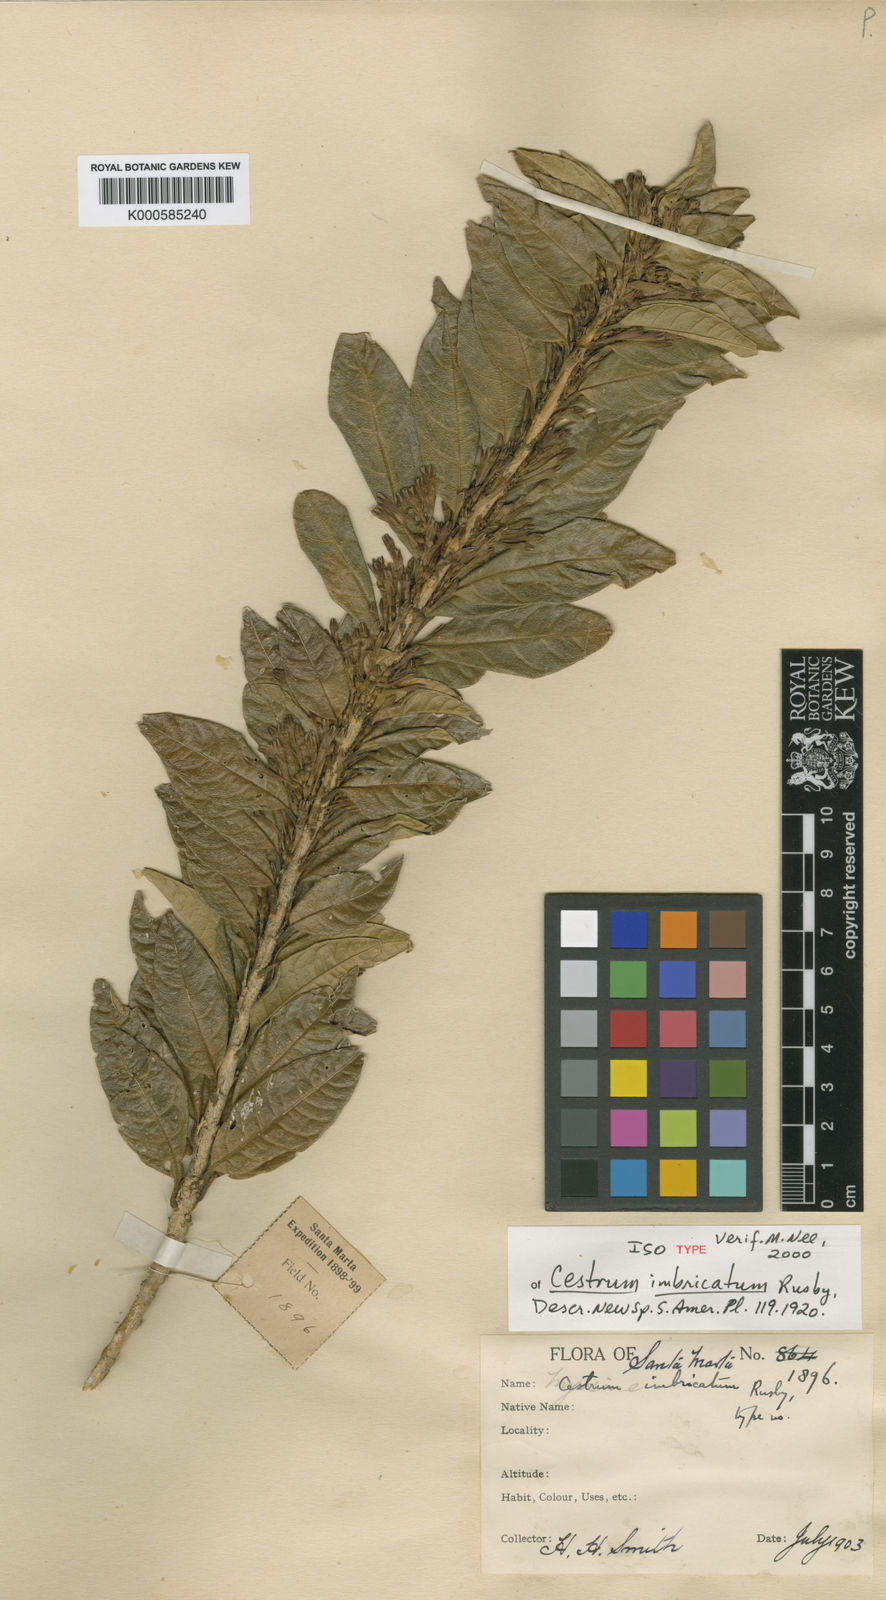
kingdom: Plantae
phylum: Tracheophyta
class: Magnoliopsida
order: Solanales
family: Solanaceae
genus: Cestrum
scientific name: Cestrum imbricatum
